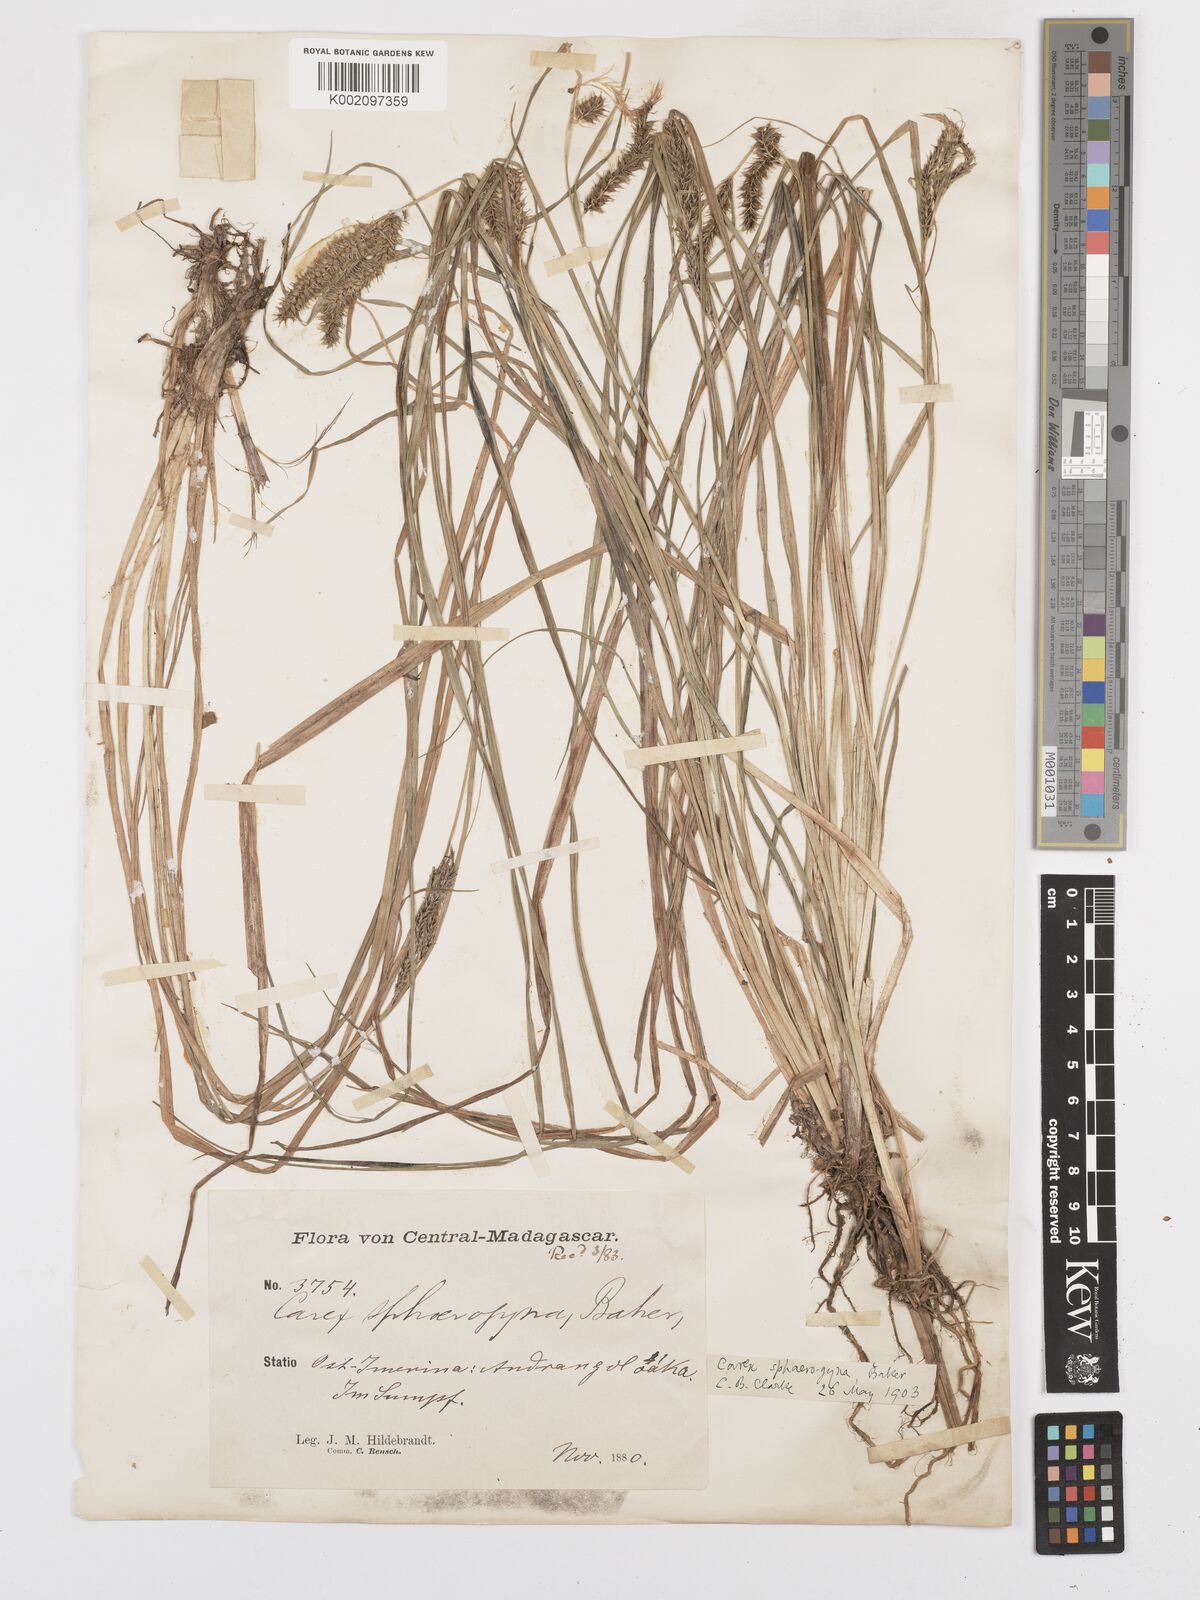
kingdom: Plantae
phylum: Tracheophyta
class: Liliopsida
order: Poales
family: Cyperaceae
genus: Carex
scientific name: Carex sphaerogyna
